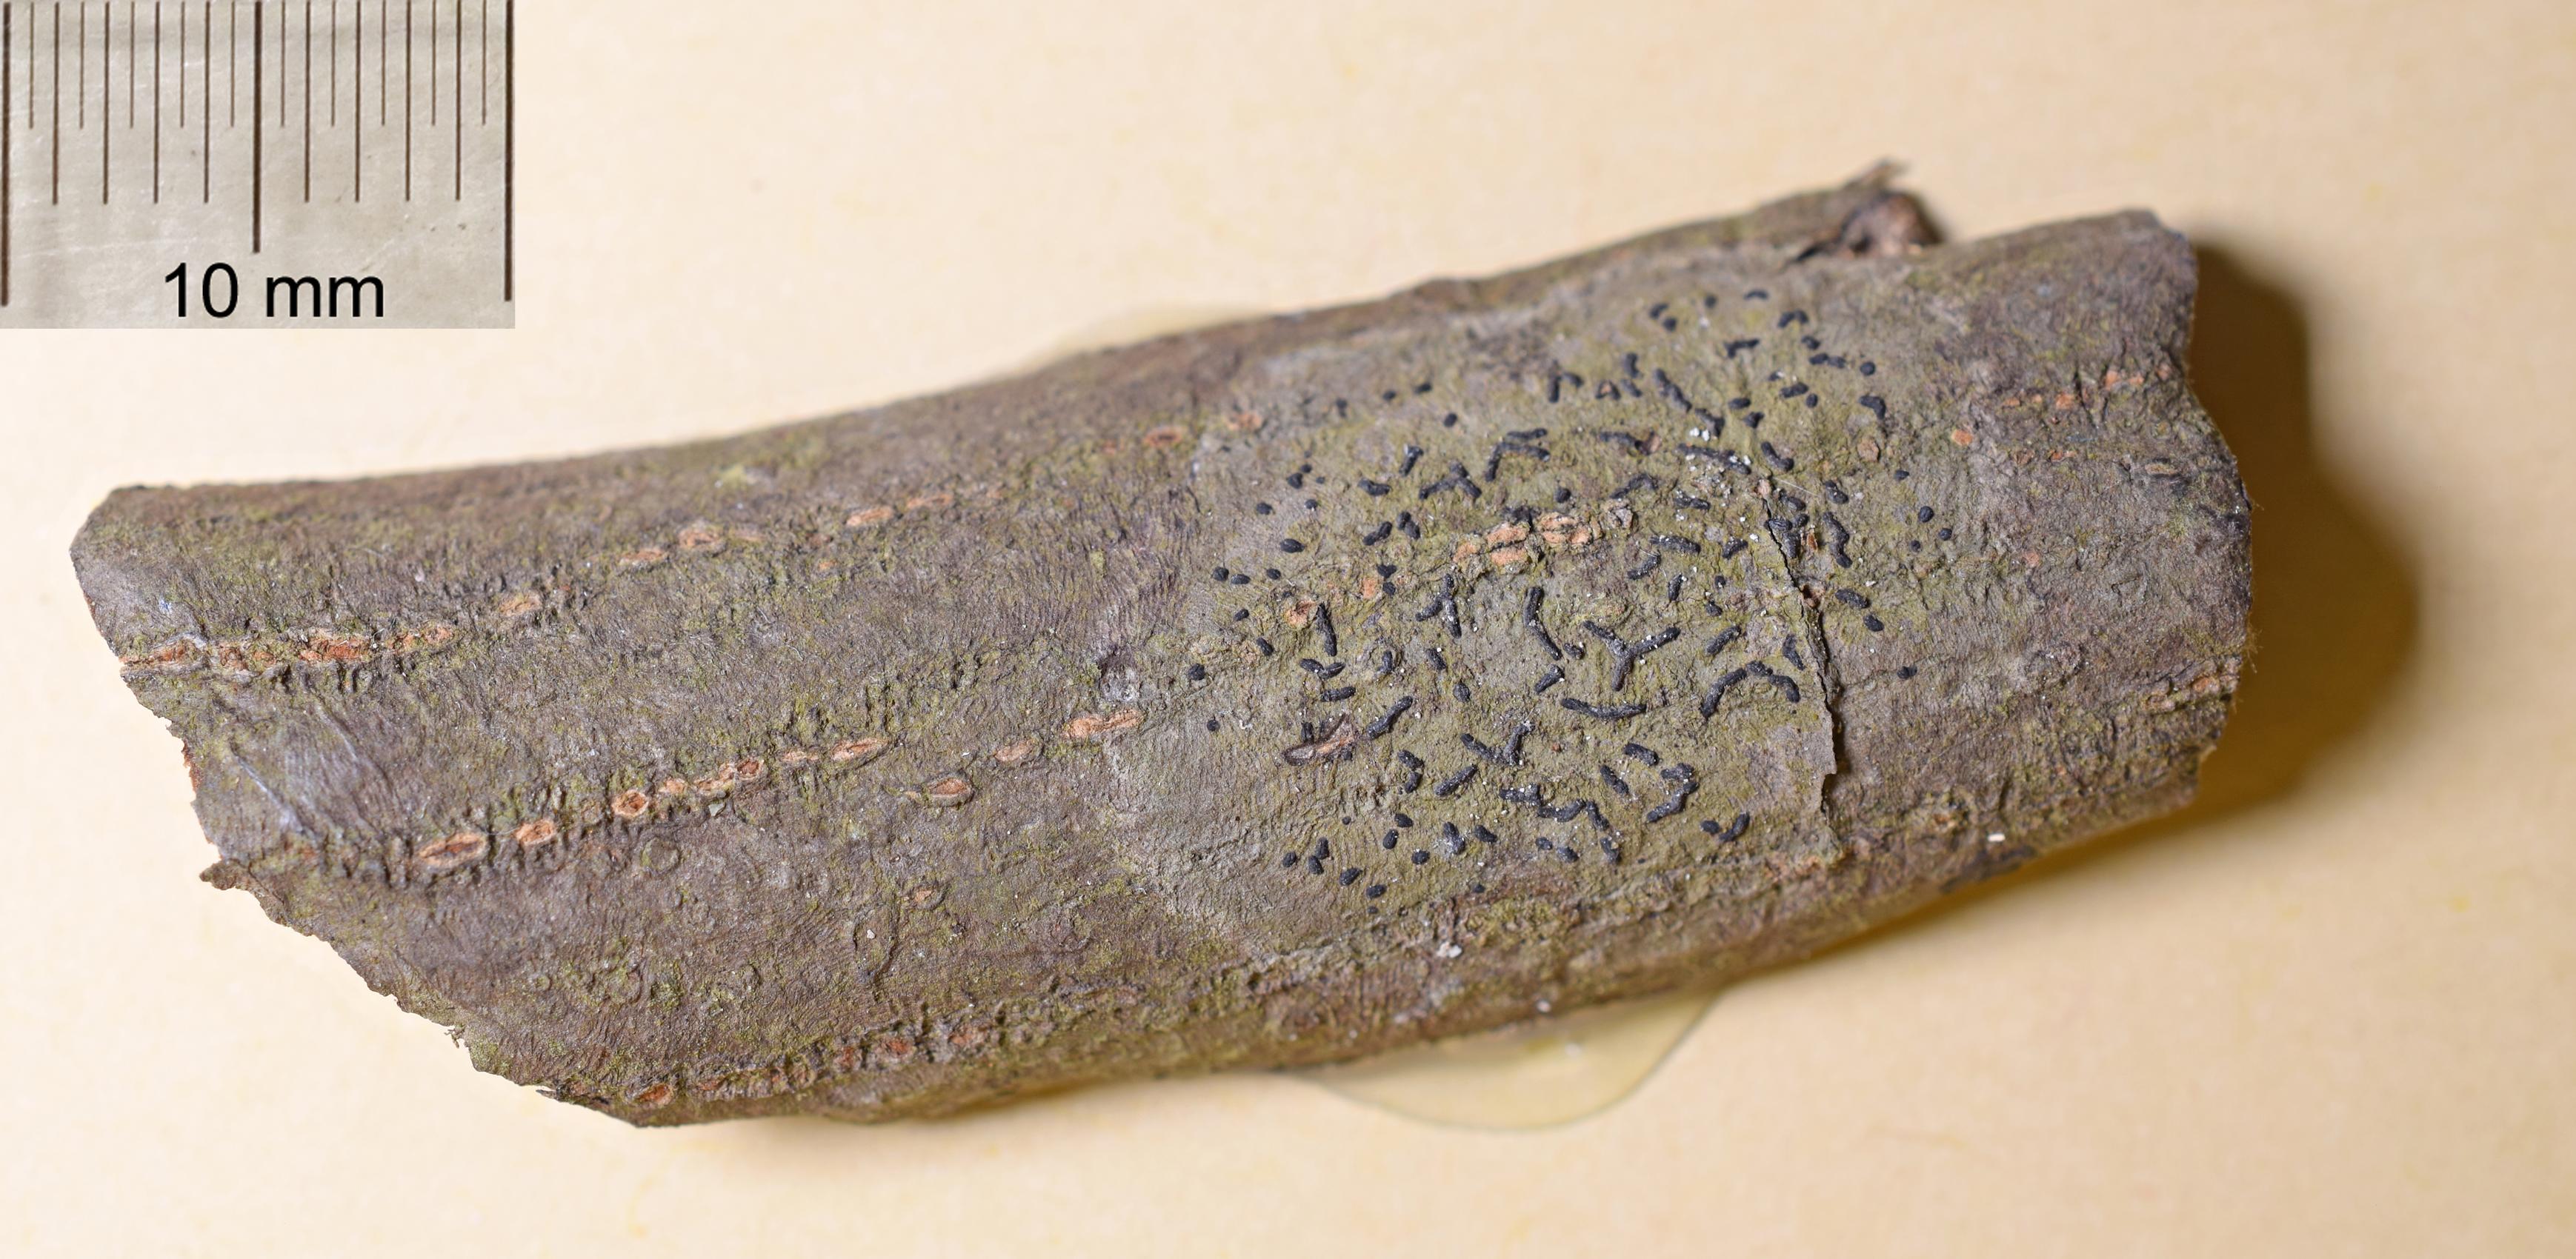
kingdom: Fungi
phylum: Ascomycota
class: Arthoniomycetes
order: Arthoniales
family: Opegraphaceae
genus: Opegrapha
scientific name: Opegrapha
